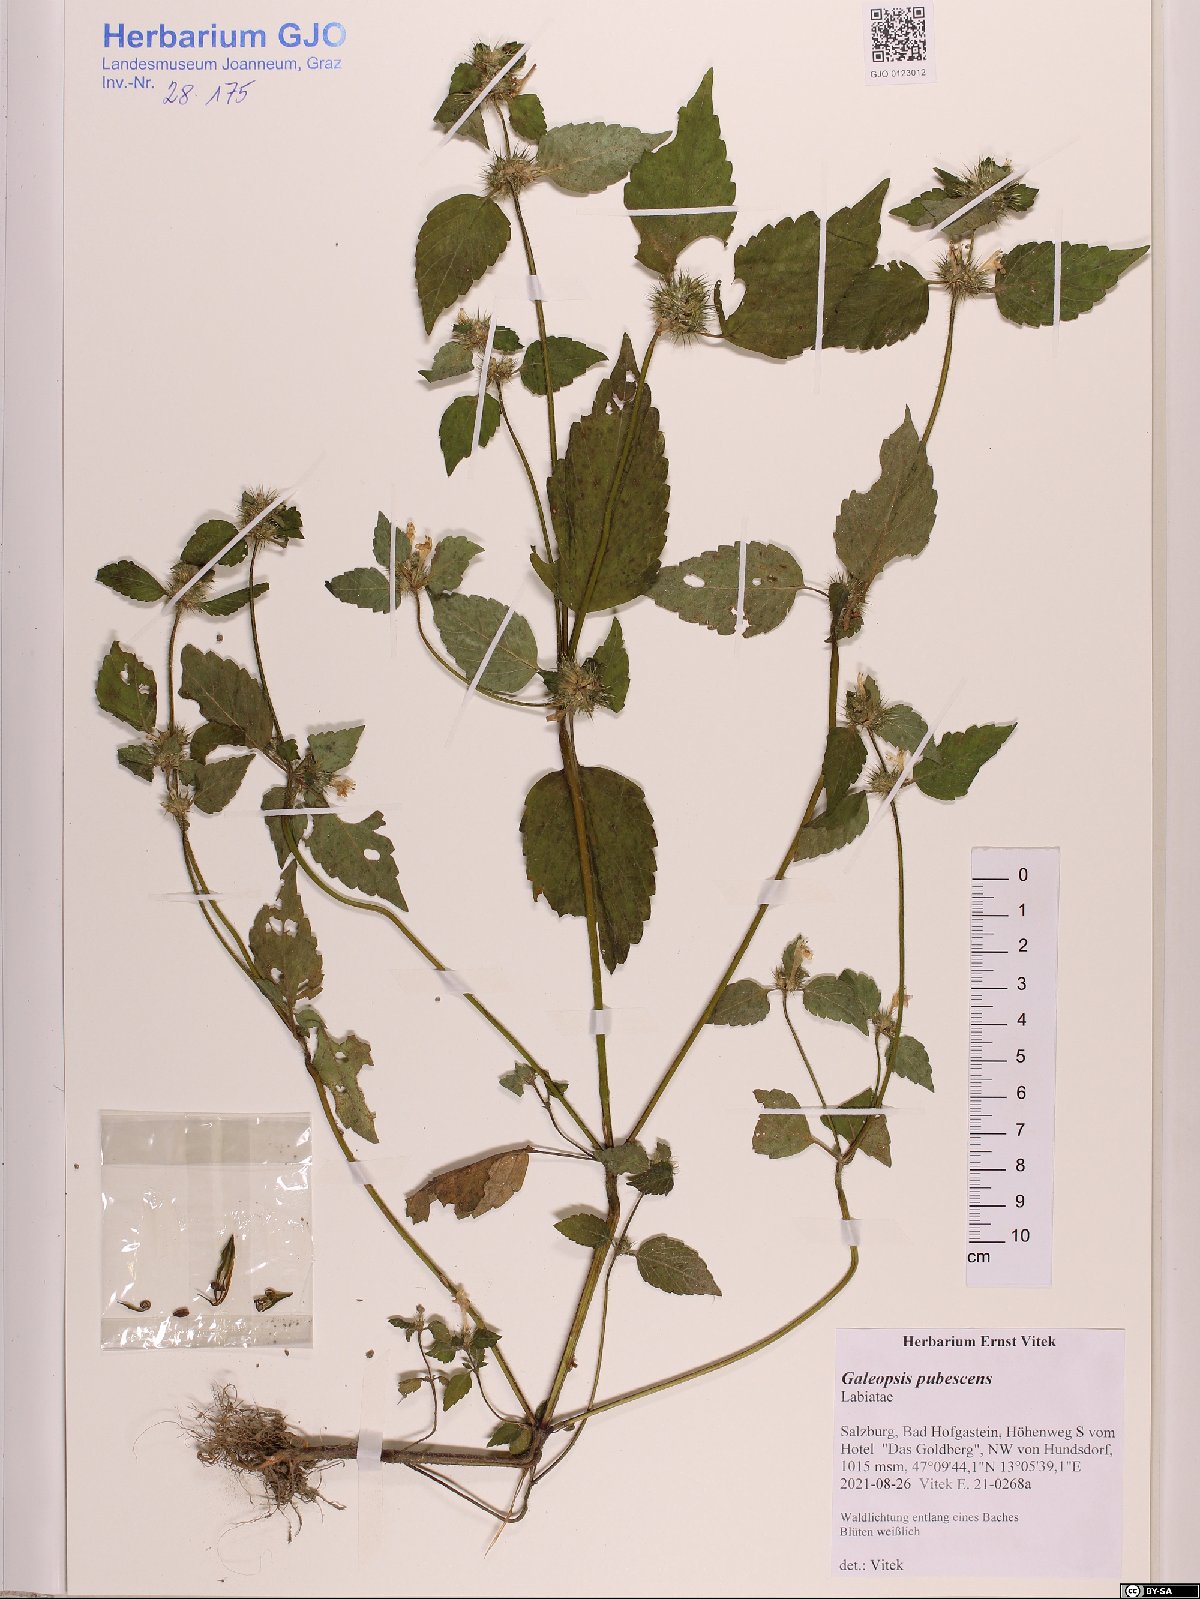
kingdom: Plantae
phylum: Tracheophyta
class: Magnoliopsida
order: Lamiales
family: Lamiaceae
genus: Galeopsis
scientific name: Galeopsis pubescens
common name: Downy hemp-nettle
